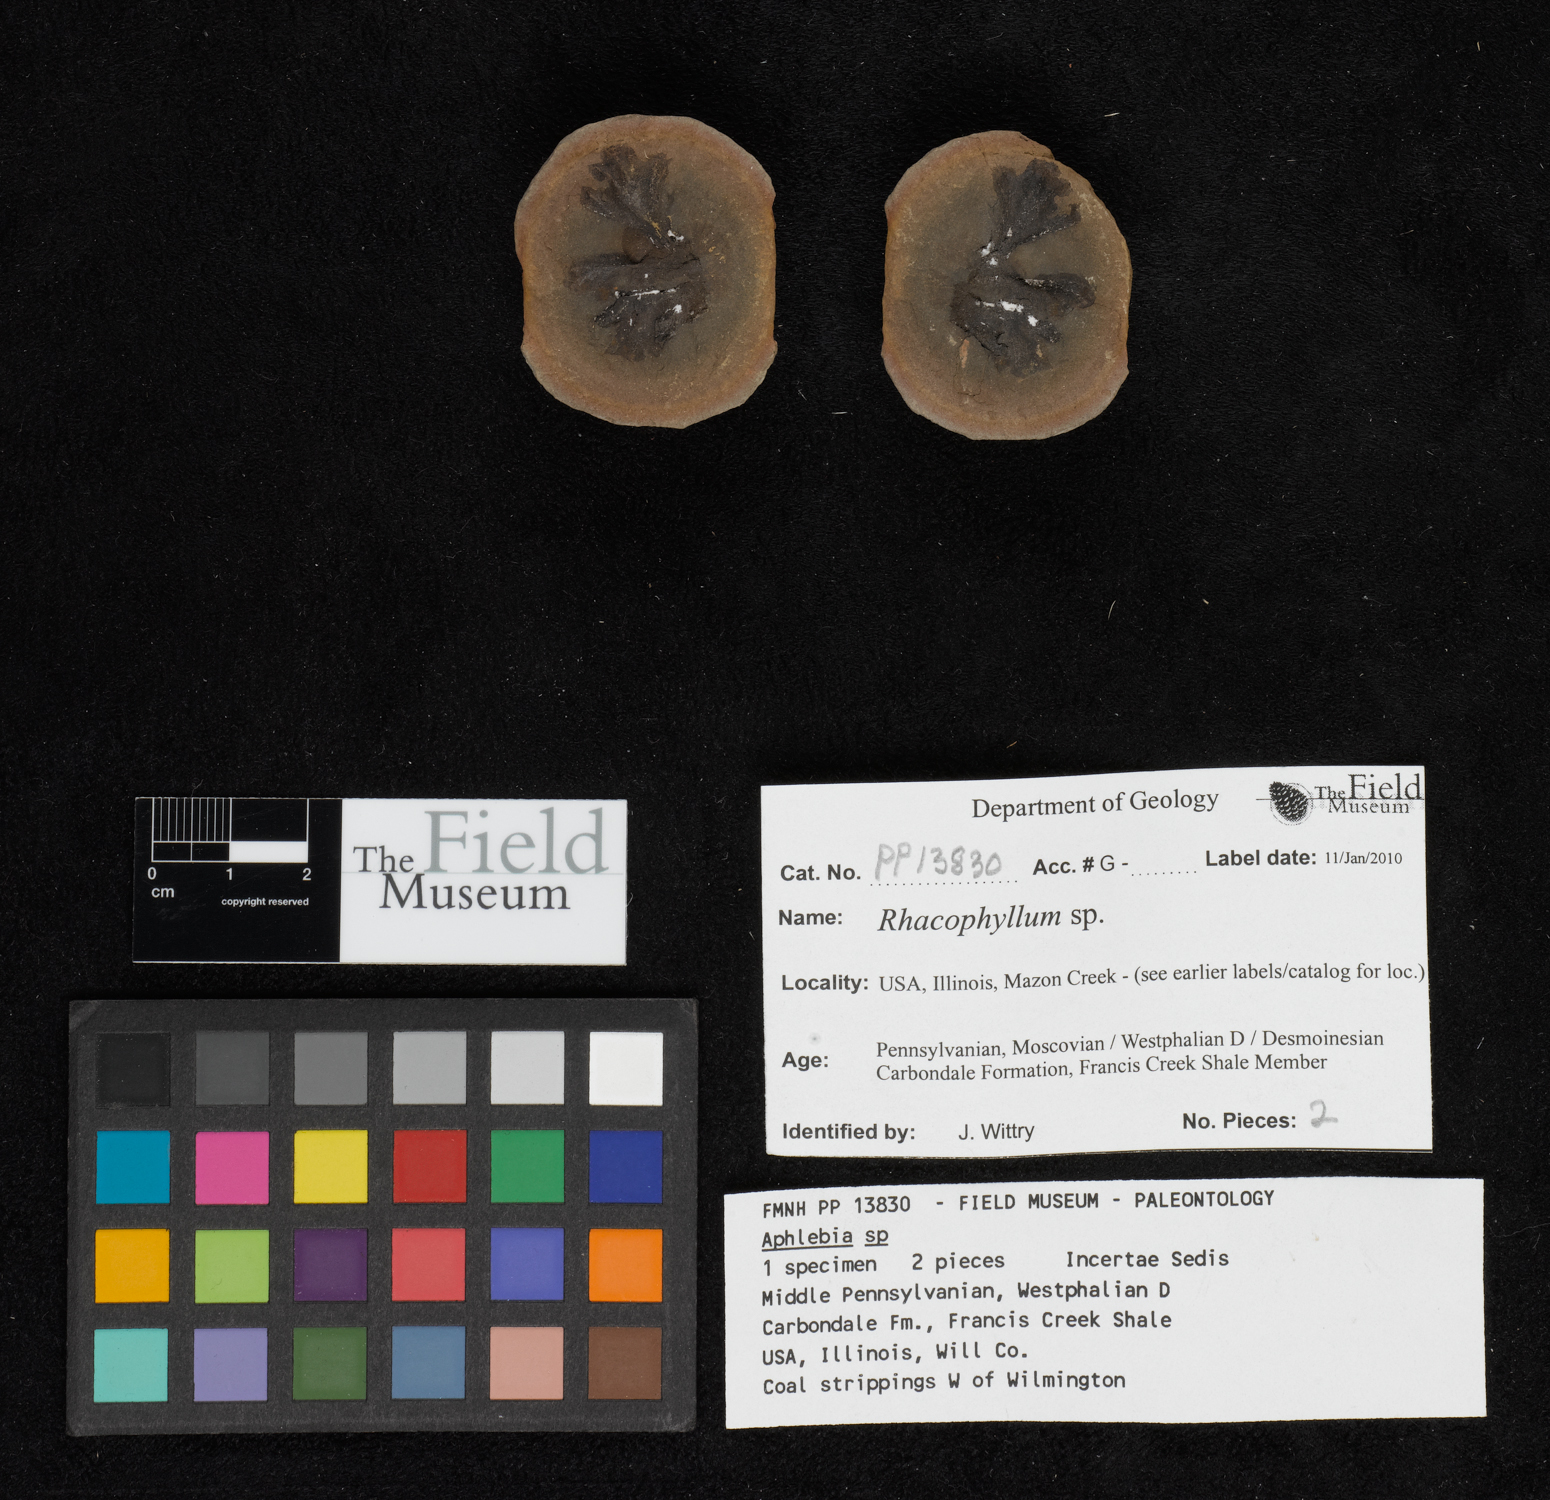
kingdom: Plantae
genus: Rhacophyllum
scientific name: Rhacophyllum
